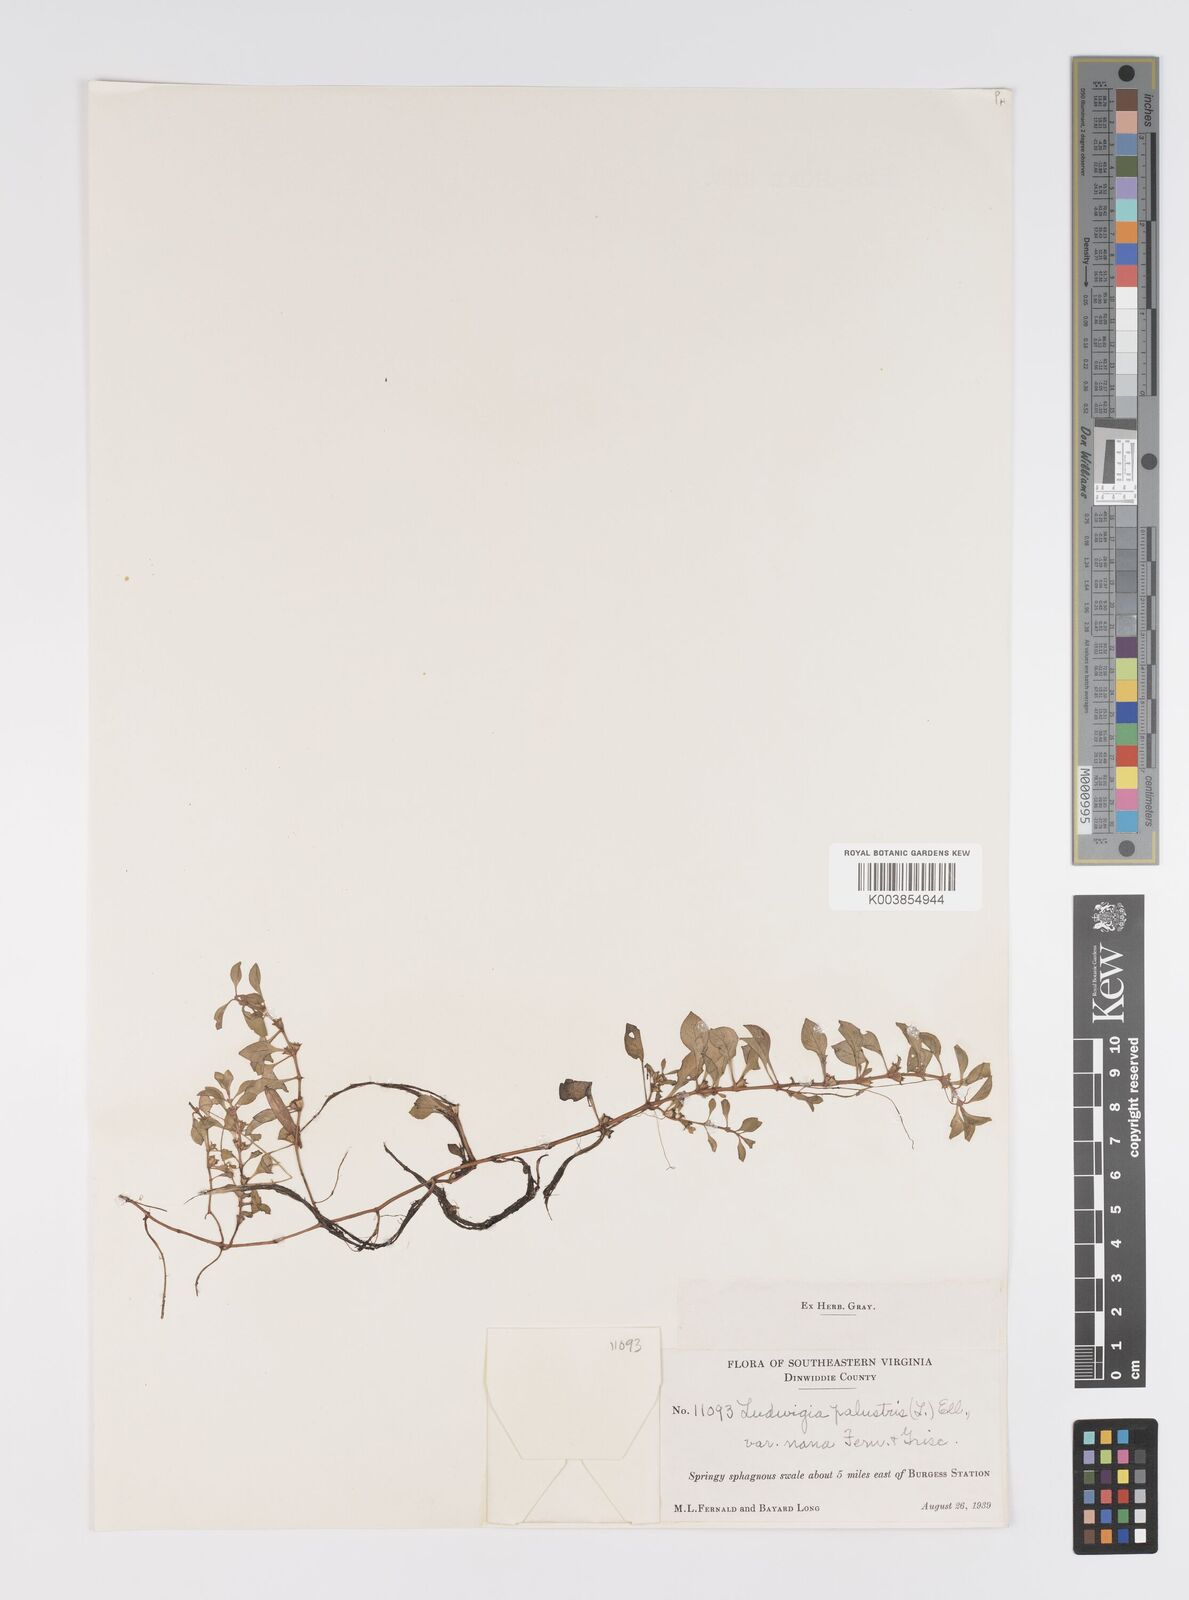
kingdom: Plantae
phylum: Tracheophyta
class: Magnoliopsida
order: Myrtales
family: Onagraceae
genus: Ludwigia
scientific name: Ludwigia palustris
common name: Hampshire-purslane
